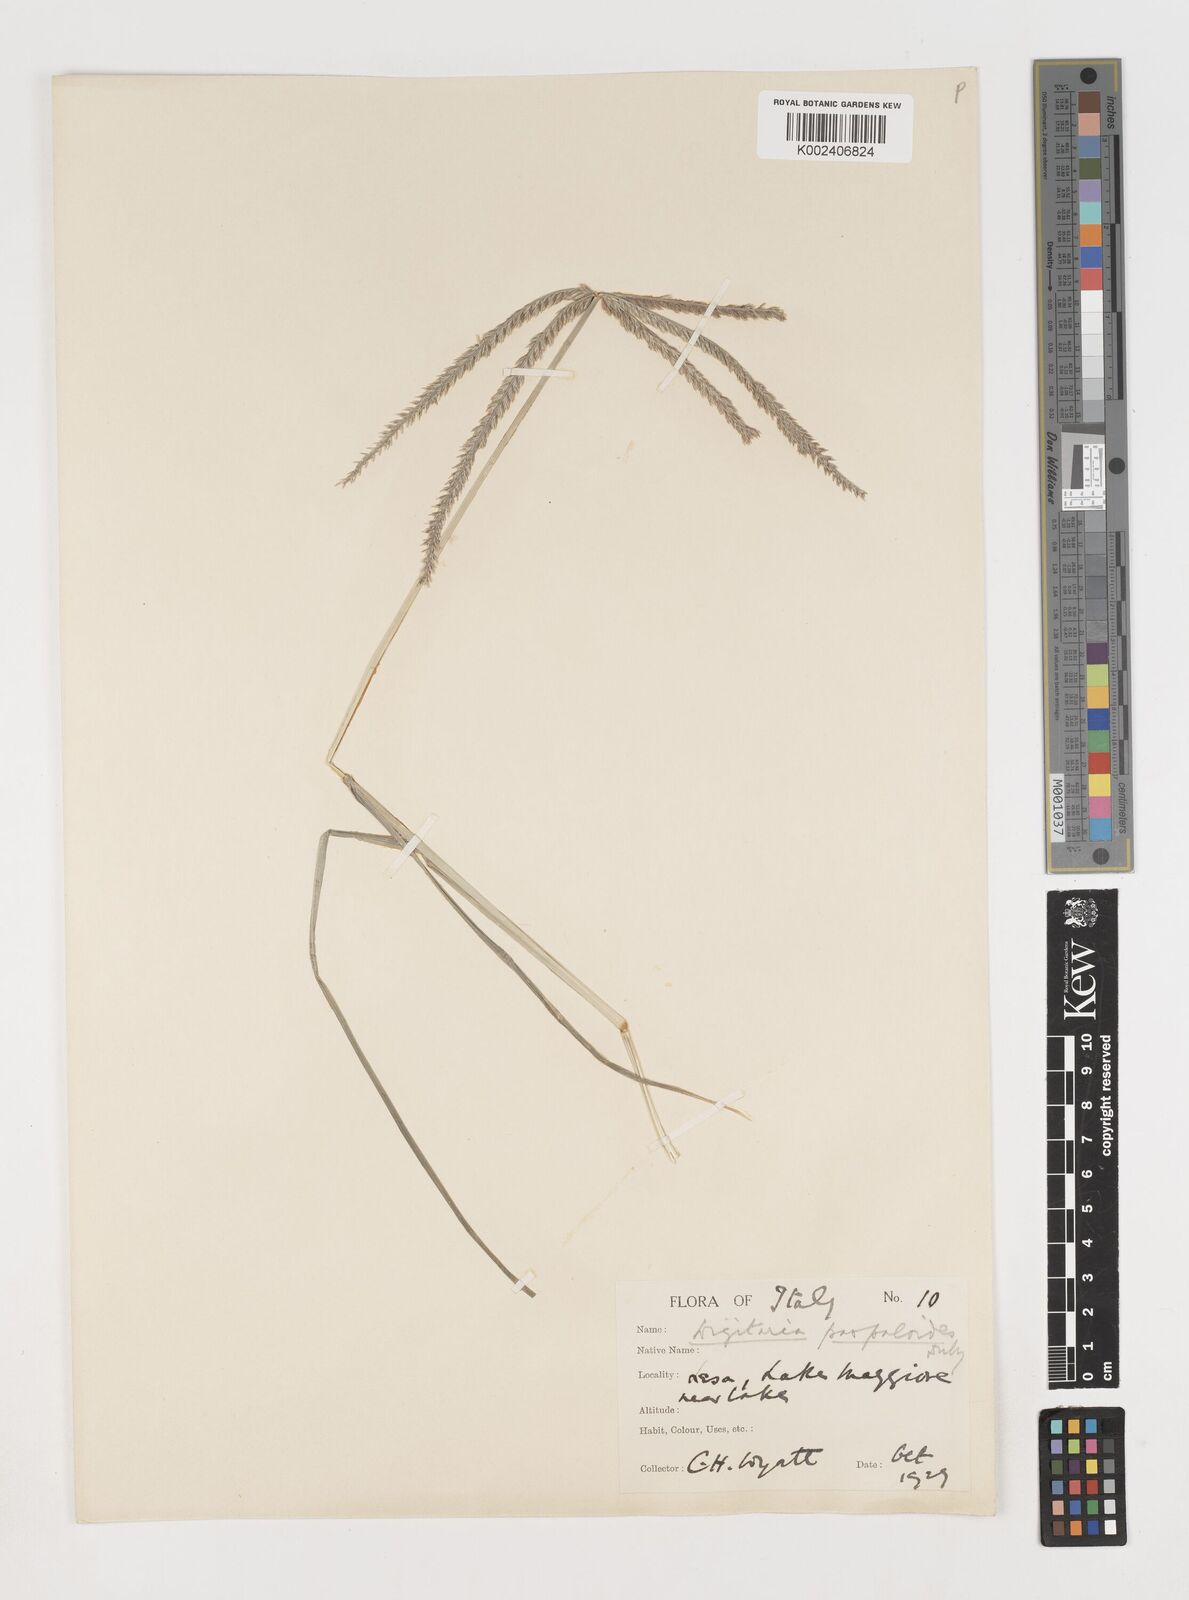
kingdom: Plantae
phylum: Tracheophyta
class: Liliopsida
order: Poales
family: Poaceae
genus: Eleusine
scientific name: Eleusine indica
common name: Yard-grass
